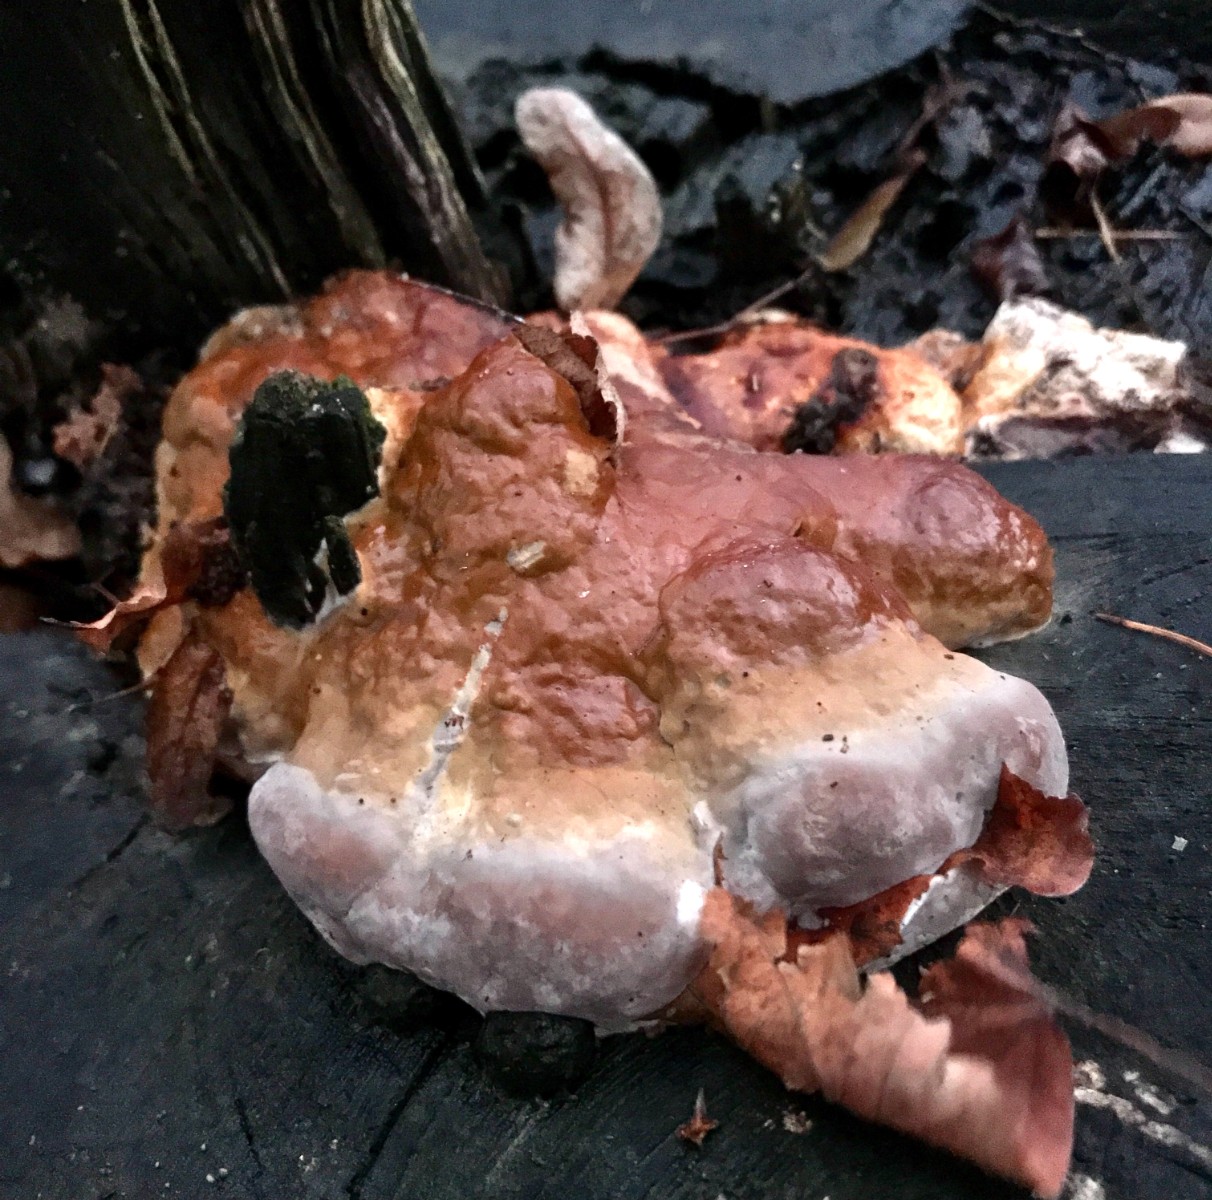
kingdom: Fungi
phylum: Basidiomycota
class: Agaricomycetes
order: Polyporales
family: Fomitopsidaceae
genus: Fomitopsis
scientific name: Fomitopsis pinicola
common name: randbæltet hovporesvamp
